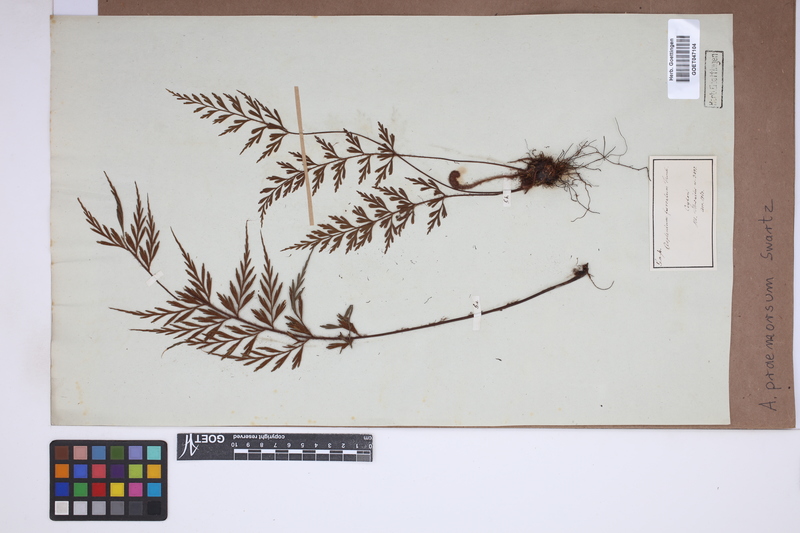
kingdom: Plantae
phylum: Tracheophyta
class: Polypodiopsida
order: Polypodiales
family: Aspleniaceae
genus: Asplenium
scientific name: Asplenium praemorsum
